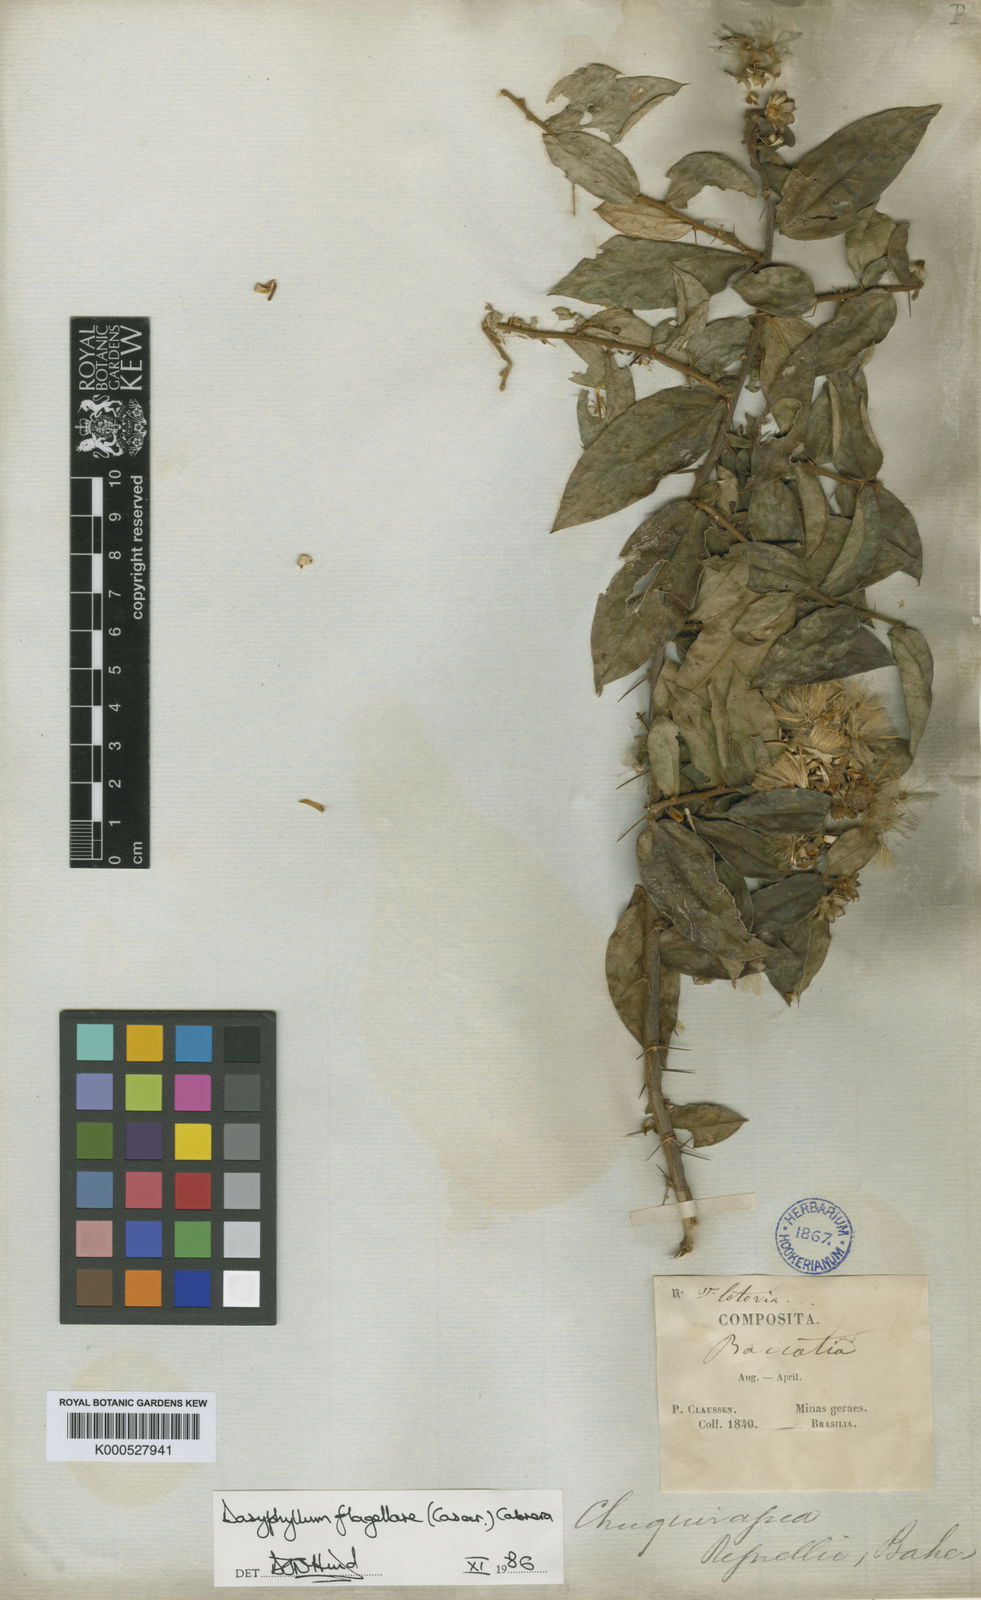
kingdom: Plantae
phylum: Tracheophyta
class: Magnoliopsida
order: Asterales
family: Asteraceae
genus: Dasyphyllum
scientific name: Dasyphyllum flagellare
